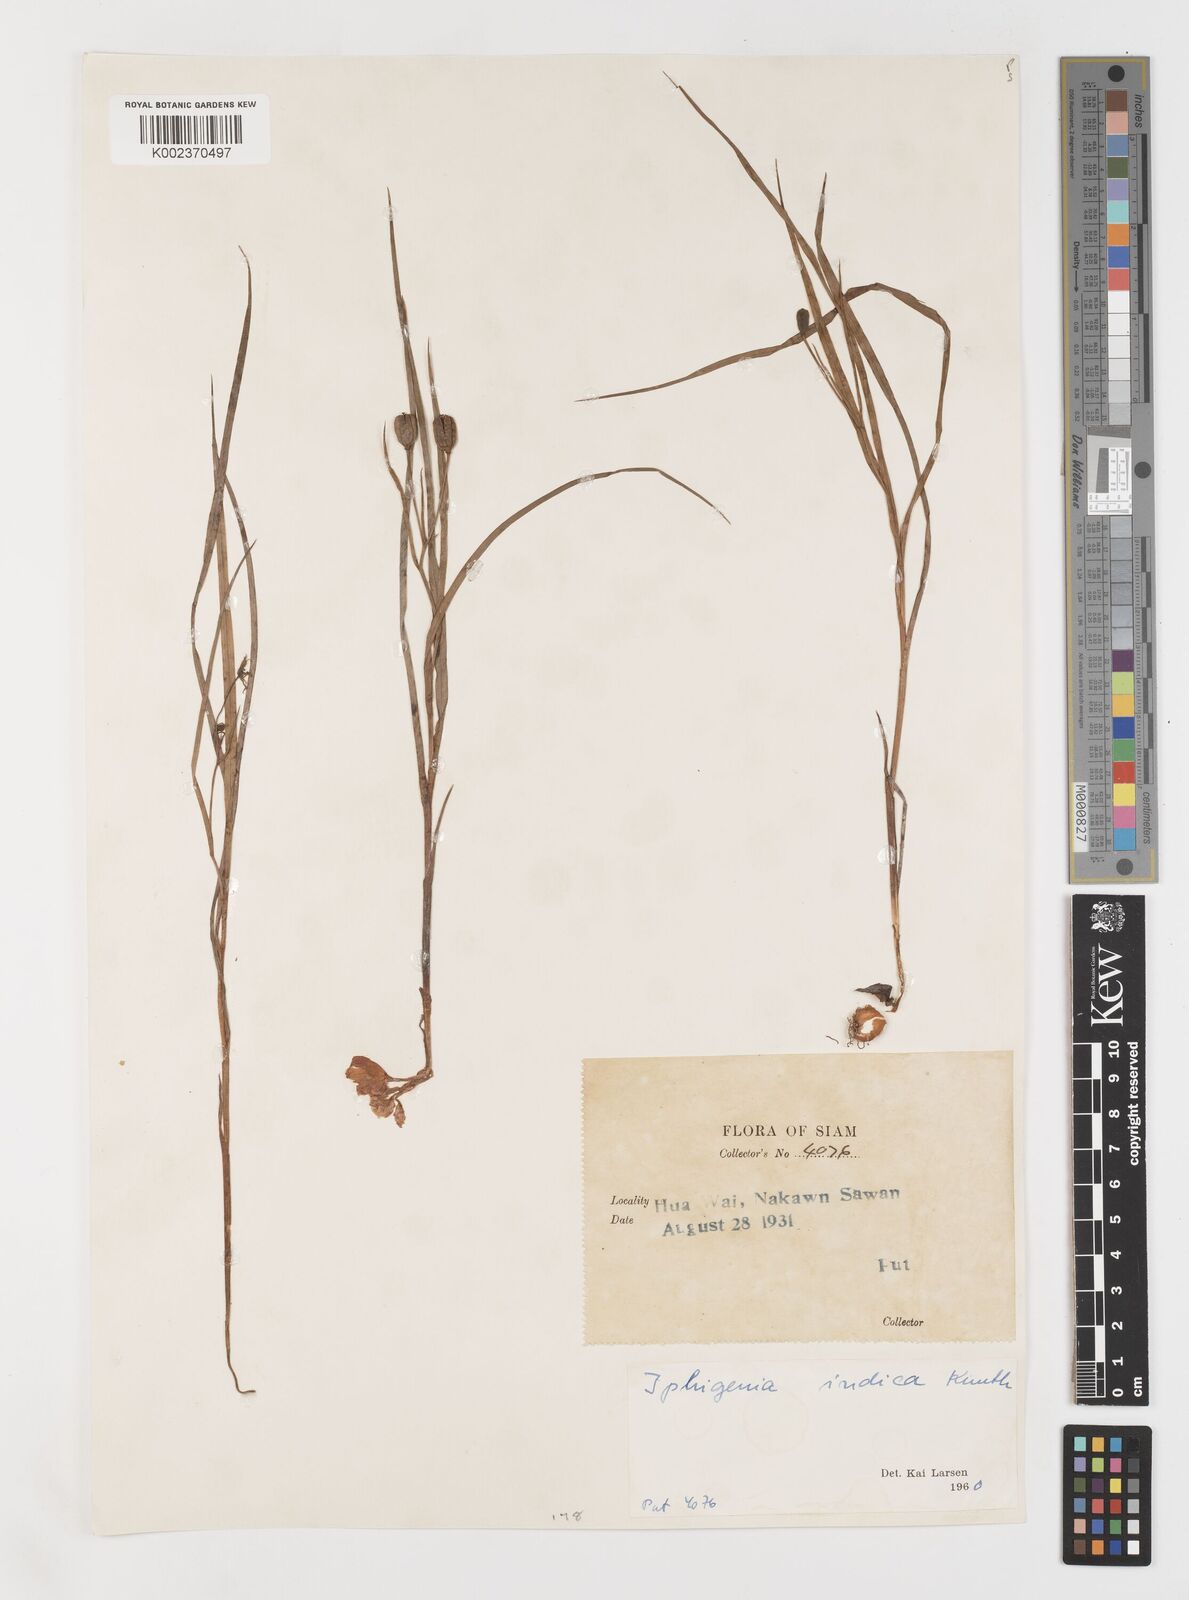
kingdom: Plantae
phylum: Tracheophyta
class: Liliopsida
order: Liliales
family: Colchicaceae
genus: Iphigenia
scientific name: Iphigenia indica
